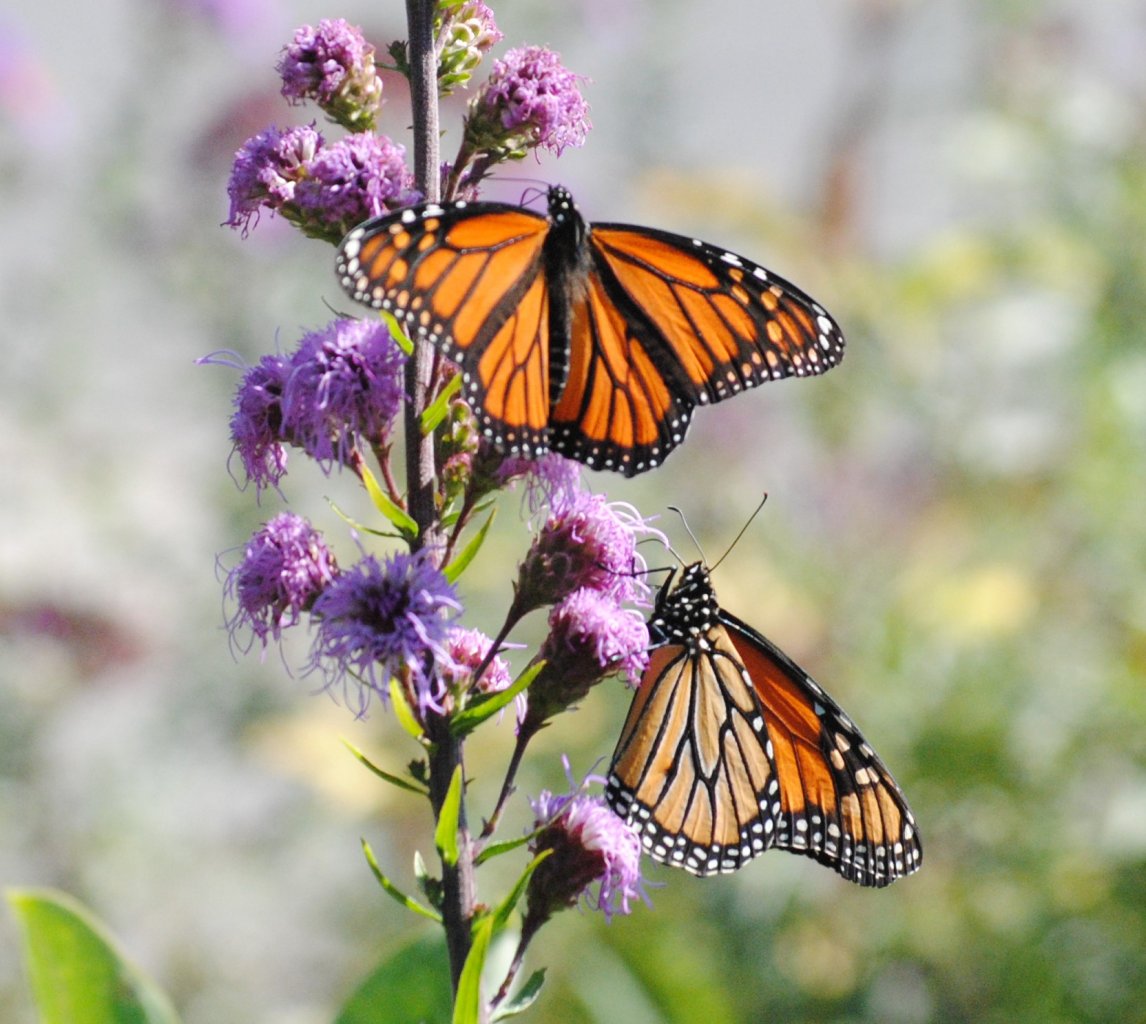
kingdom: Animalia
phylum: Arthropoda
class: Insecta
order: Lepidoptera
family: Nymphalidae
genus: Danaus
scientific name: Danaus plexippus
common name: Monarch
